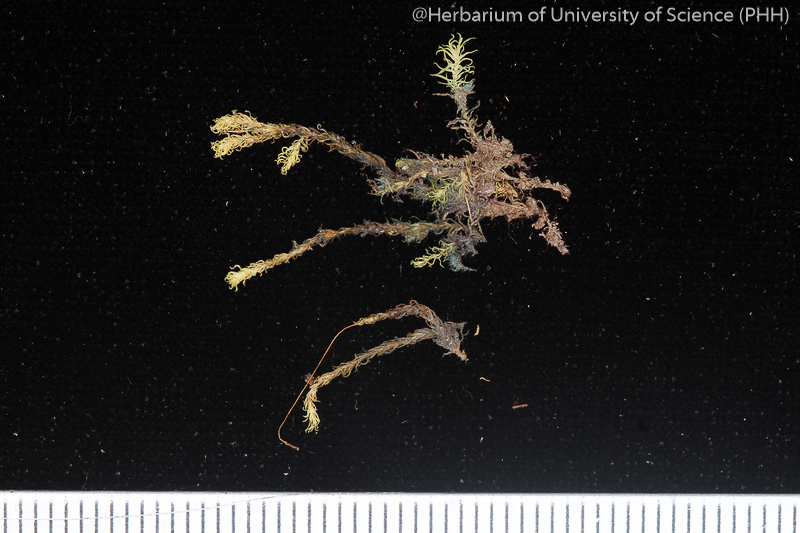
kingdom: Plantae
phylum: Bryophyta
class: Bryopsida
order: Pottiales
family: Pottiaceae
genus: Hydrogonium
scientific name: Hydrogonium pseudoehrenbergii
